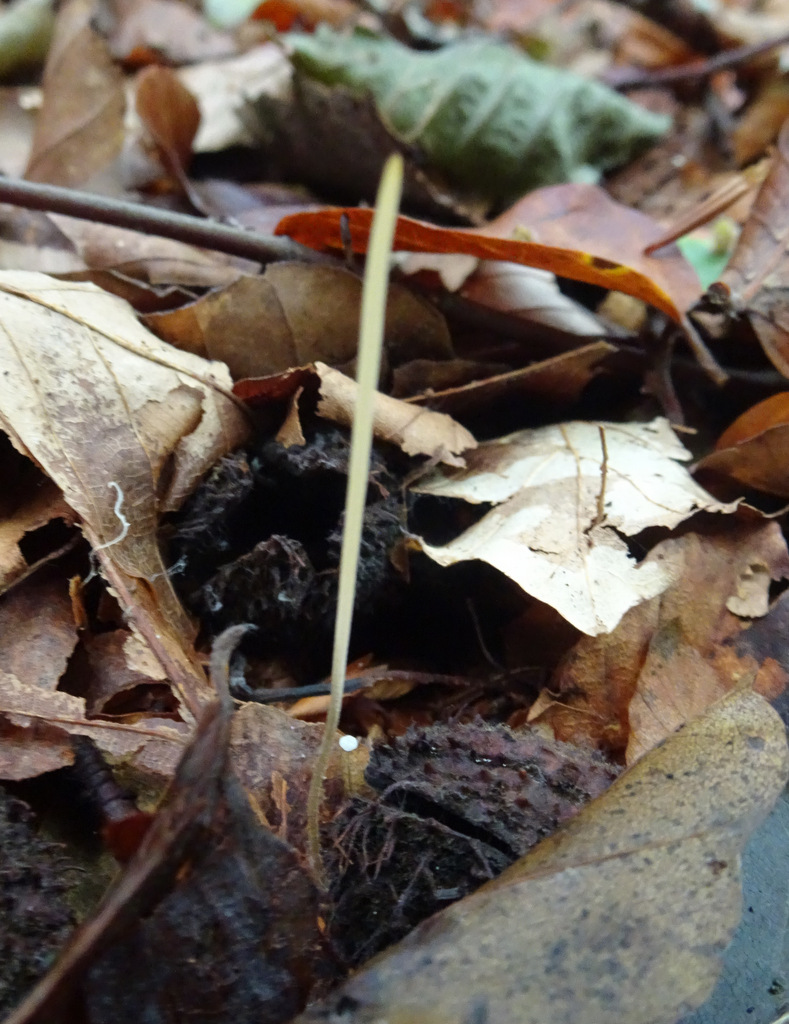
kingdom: Fungi
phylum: Basidiomycota
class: Agaricomycetes
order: Agaricales
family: Typhulaceae
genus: Macrotyphula
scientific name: Macrotyphula
